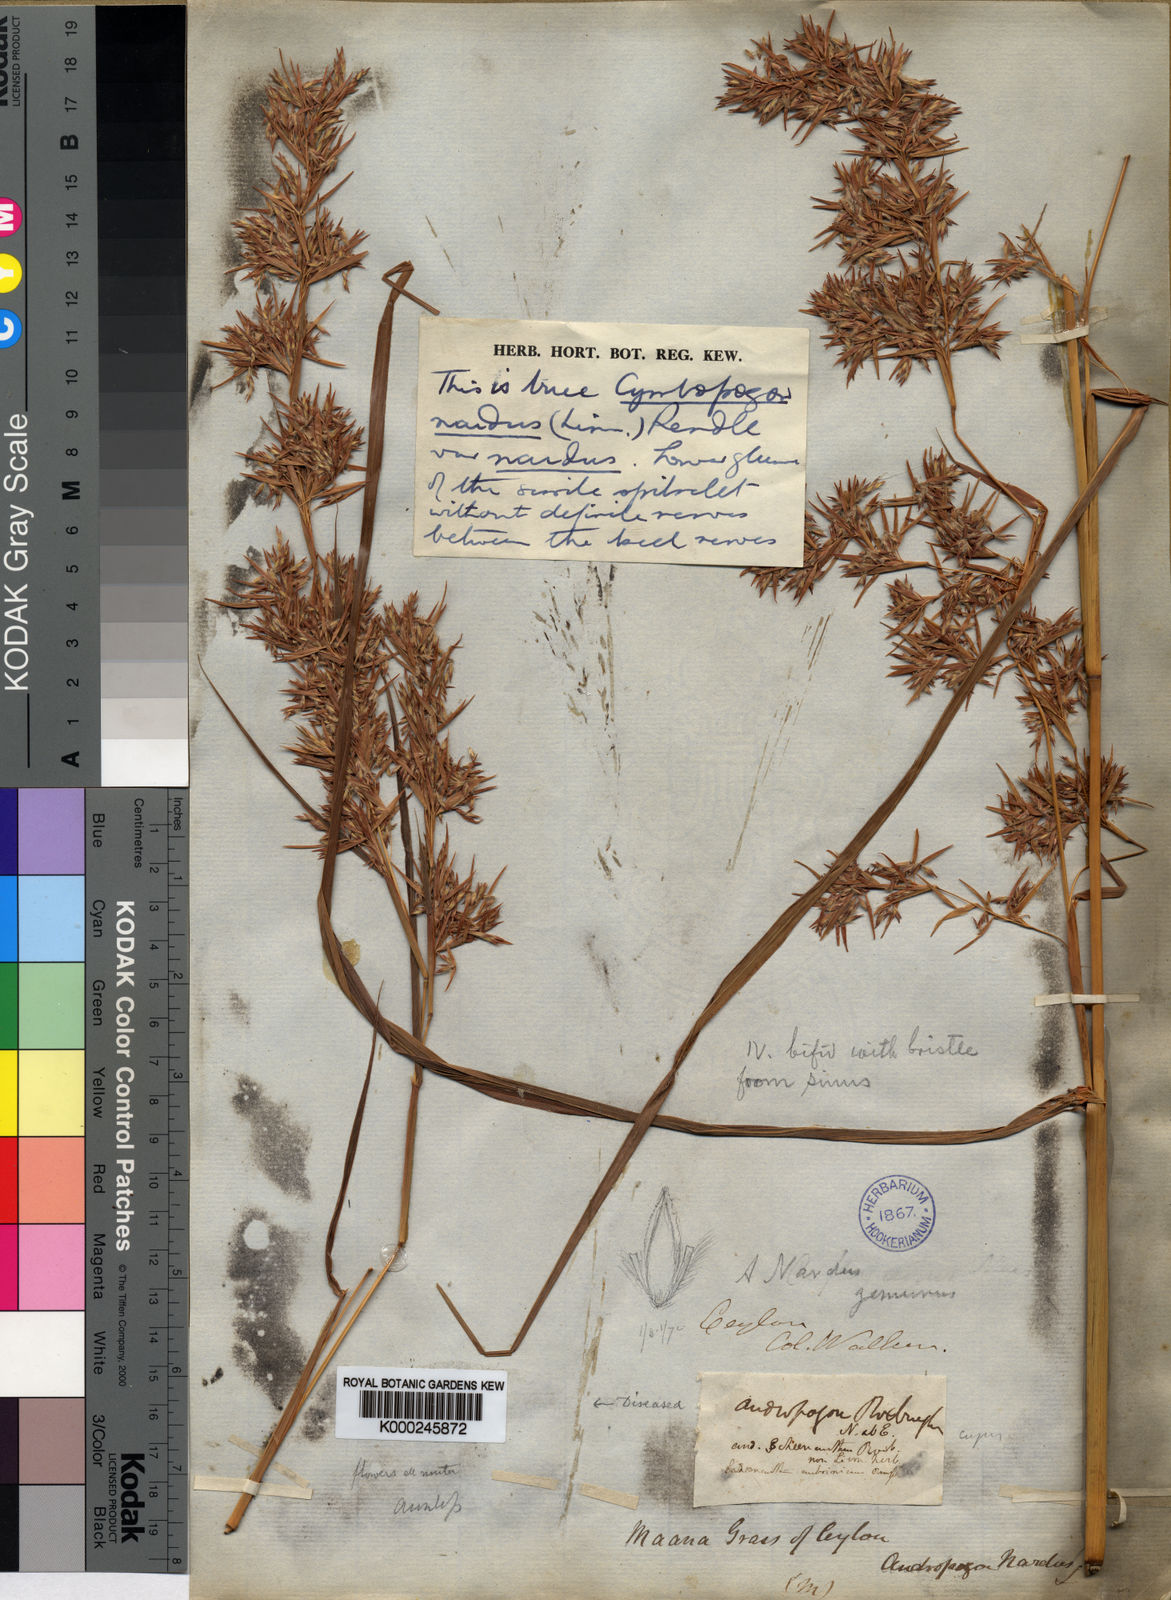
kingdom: Plantae
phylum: Tracheophyta
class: Liliopsida
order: Poales
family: Poaceae
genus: Cymbopogon
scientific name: Cymbopogon nardus
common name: Giant turpentine grass
